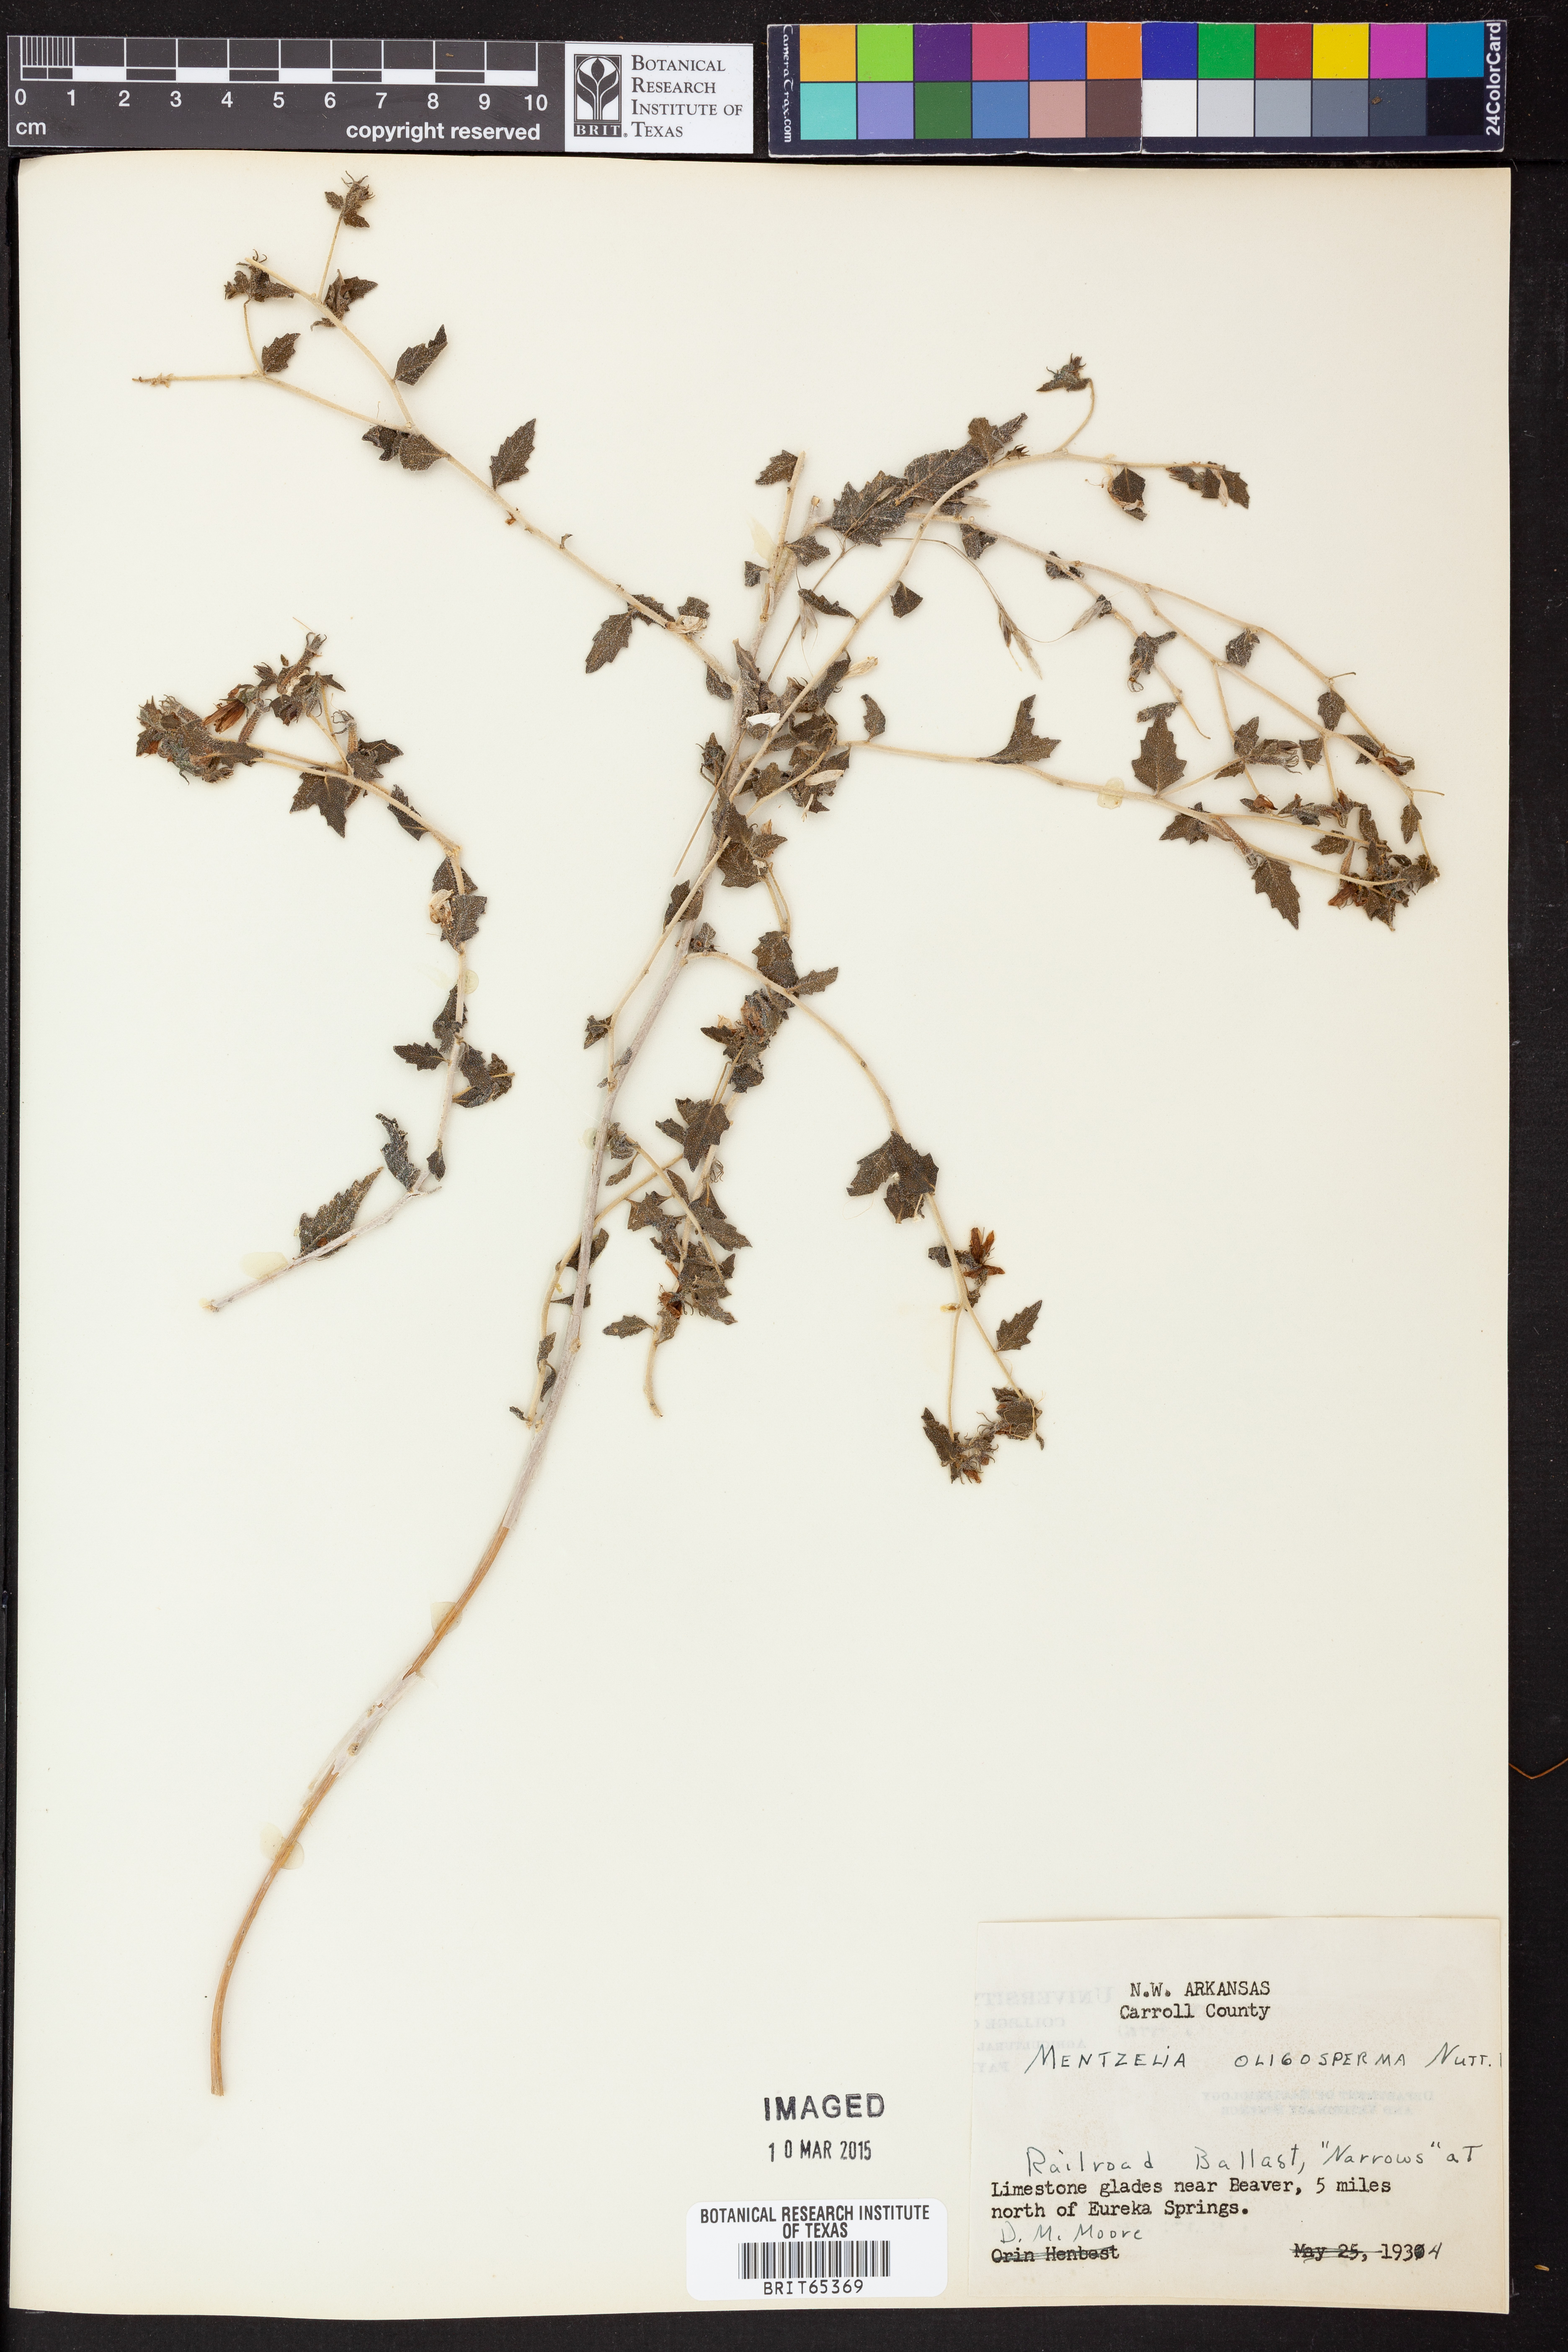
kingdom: Plantae
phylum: Tracheophyta
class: Magnoliopsida
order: Cornales
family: Loasaceae
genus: Mentzelia
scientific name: Mentzelia oligosperma
